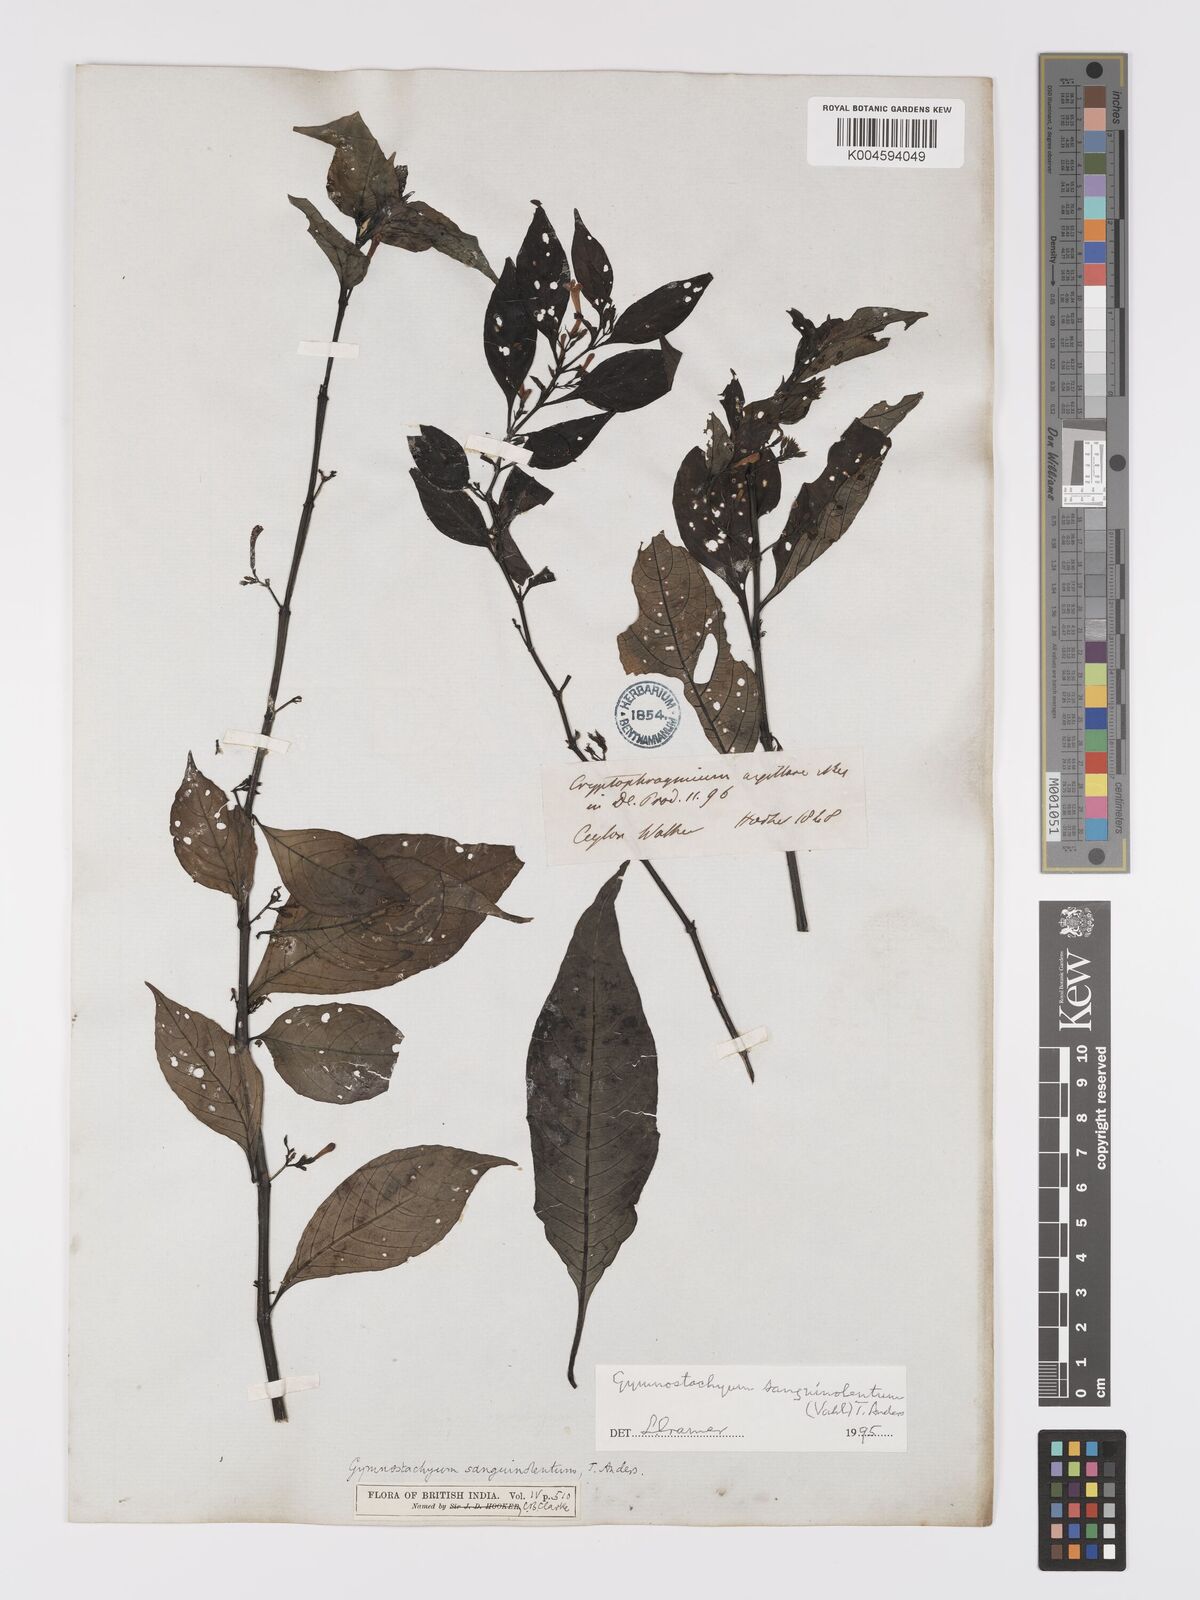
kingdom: Plantae
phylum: Tracheophyta
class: Magnoliopsida
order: Lamiales
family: Acanthaceae
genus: Gymnostachyum
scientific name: Gymnostachyum sanguinolentum
